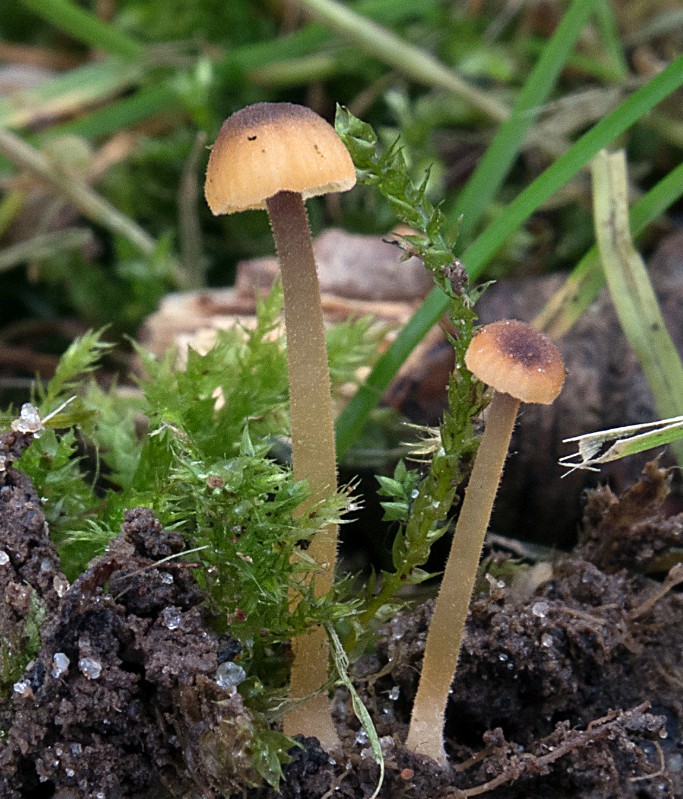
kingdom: Fungi
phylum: Basidiomycota
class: Agaricomycetes
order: Hymenochaetales
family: Rickenellaceae
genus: Rickenella
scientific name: Rickenella swartzii
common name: finstokket mosnavlehat
